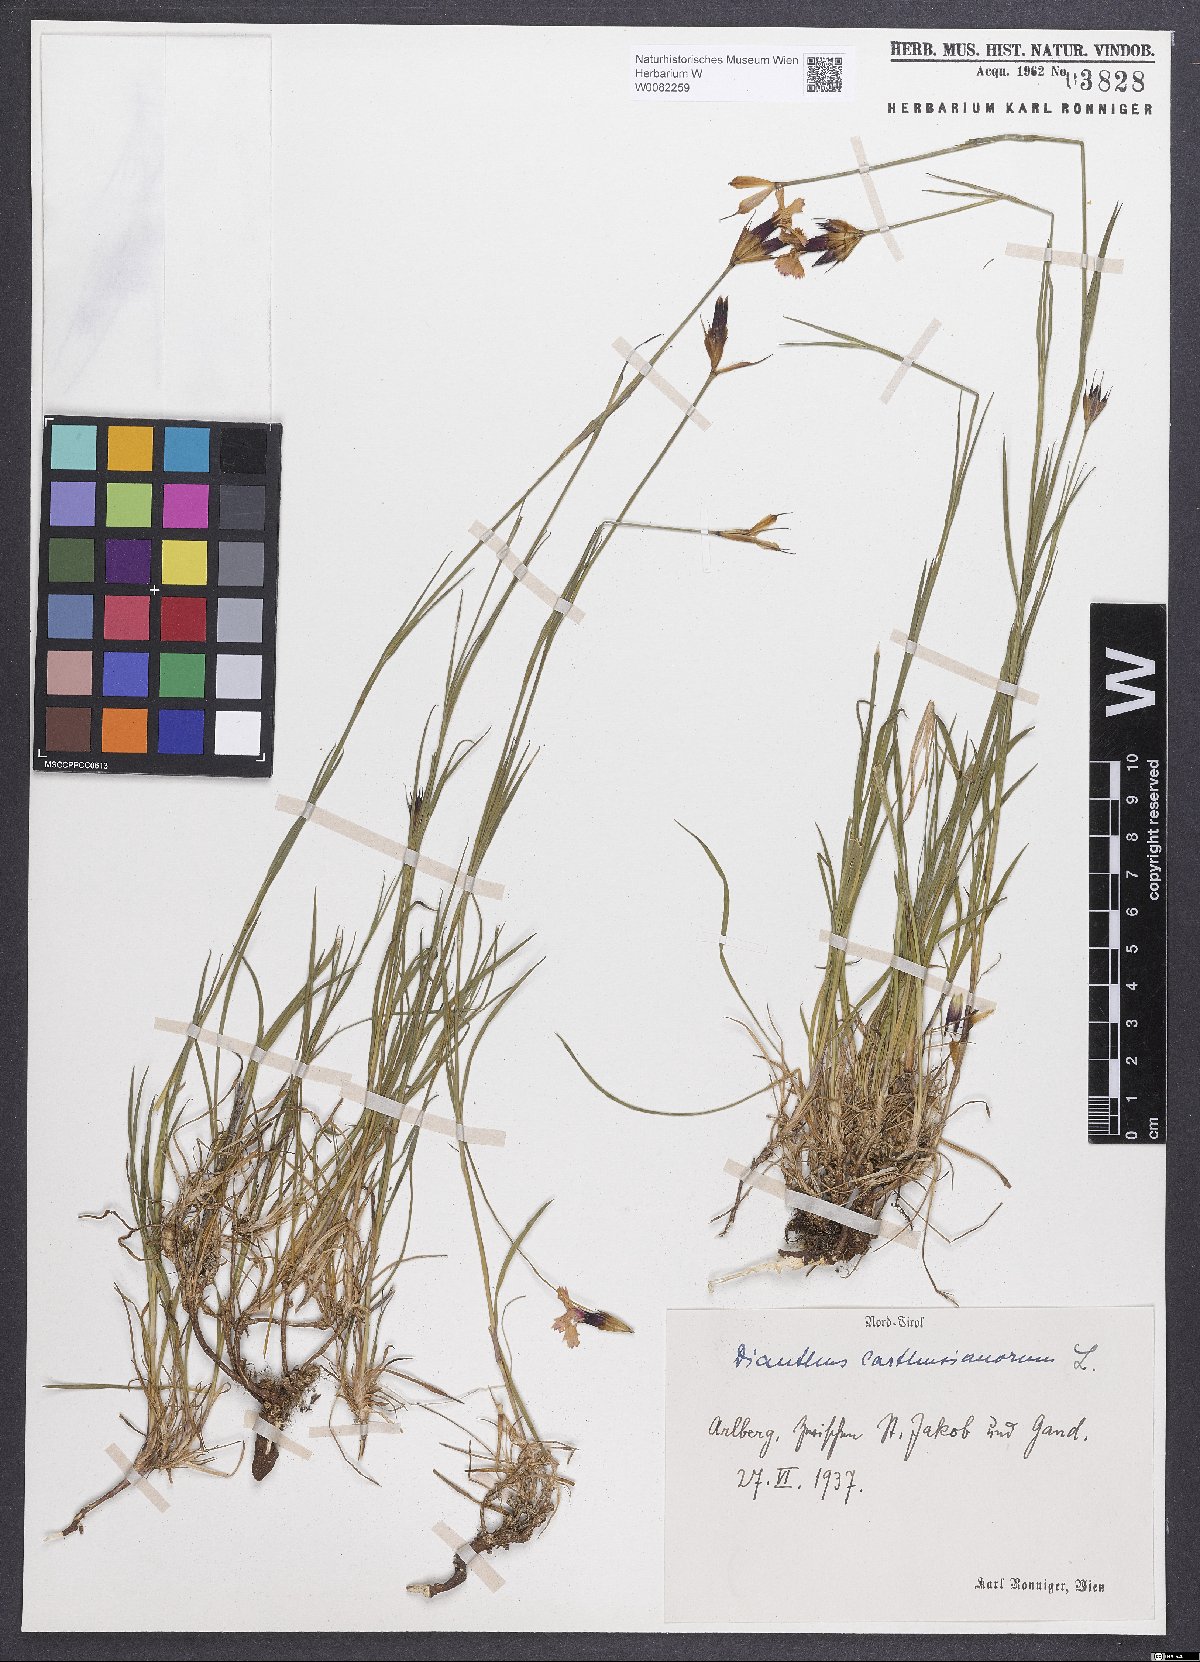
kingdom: Plantae
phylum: Tracheophyta
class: Magnoliopsida
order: Caryophyllales
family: Caryophyllaceae
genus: Dianthus
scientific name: Dianthus carthusianorum
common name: Carthusian pink
